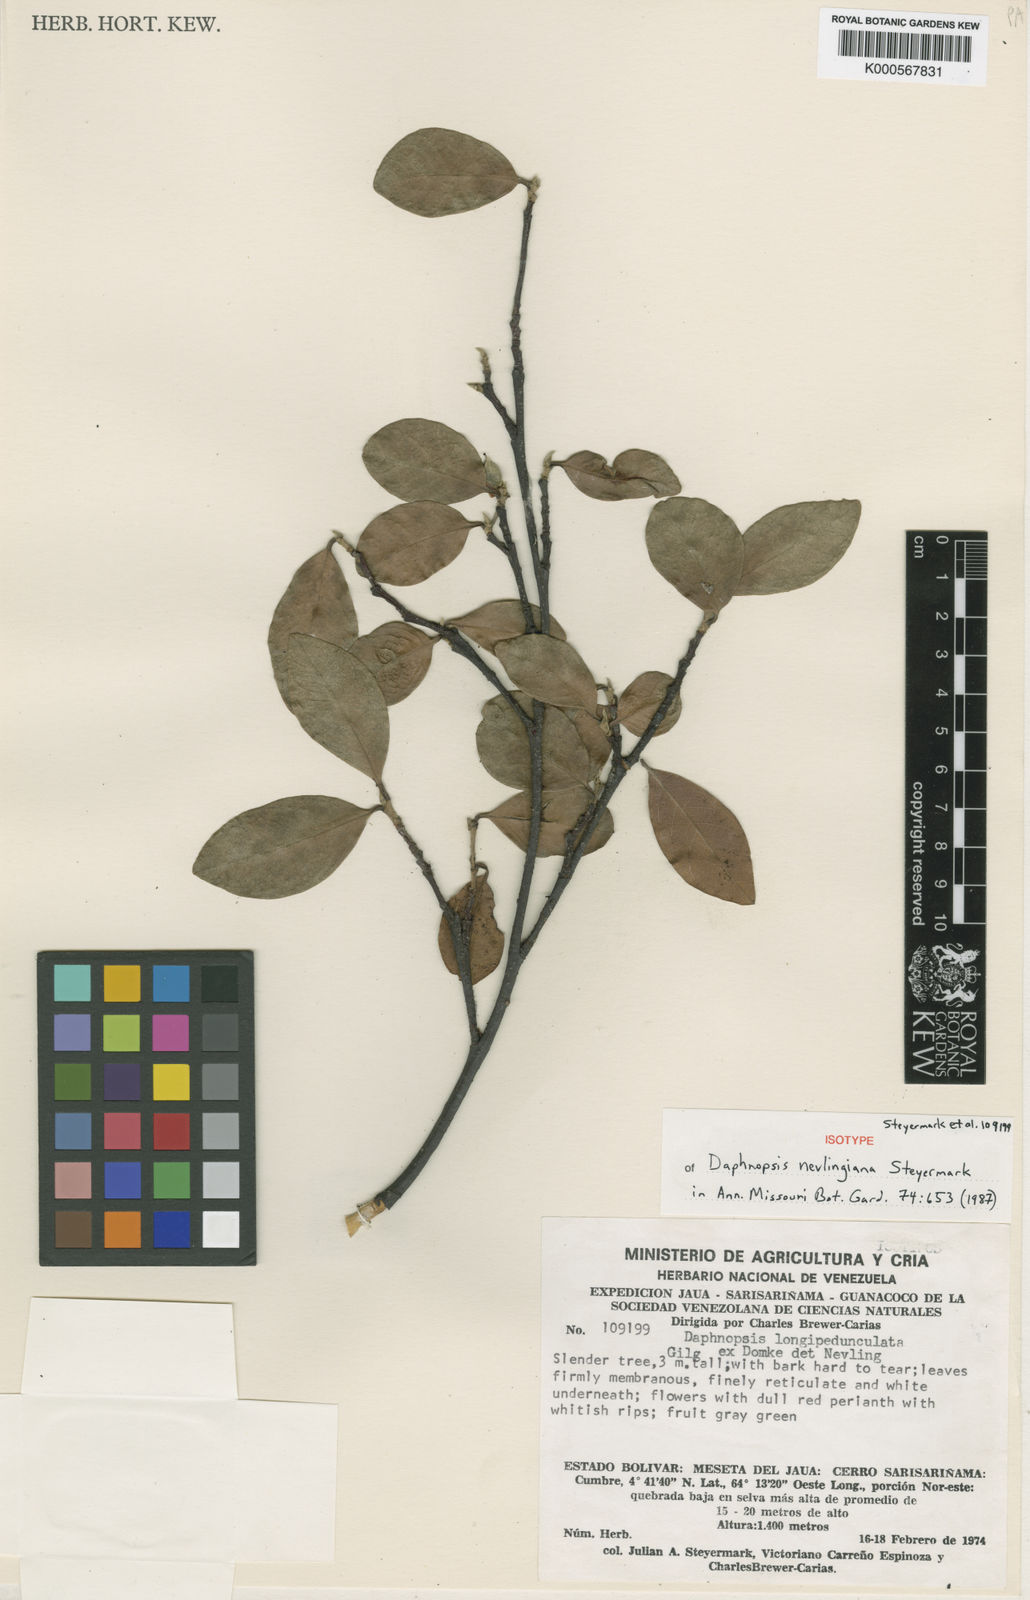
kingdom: Plantae
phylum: Tracheophyta
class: Magnoliopsida
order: Malvales
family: Thymelaeaceae
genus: Daphnopsis
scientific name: Daphnopsis nevlingiana
